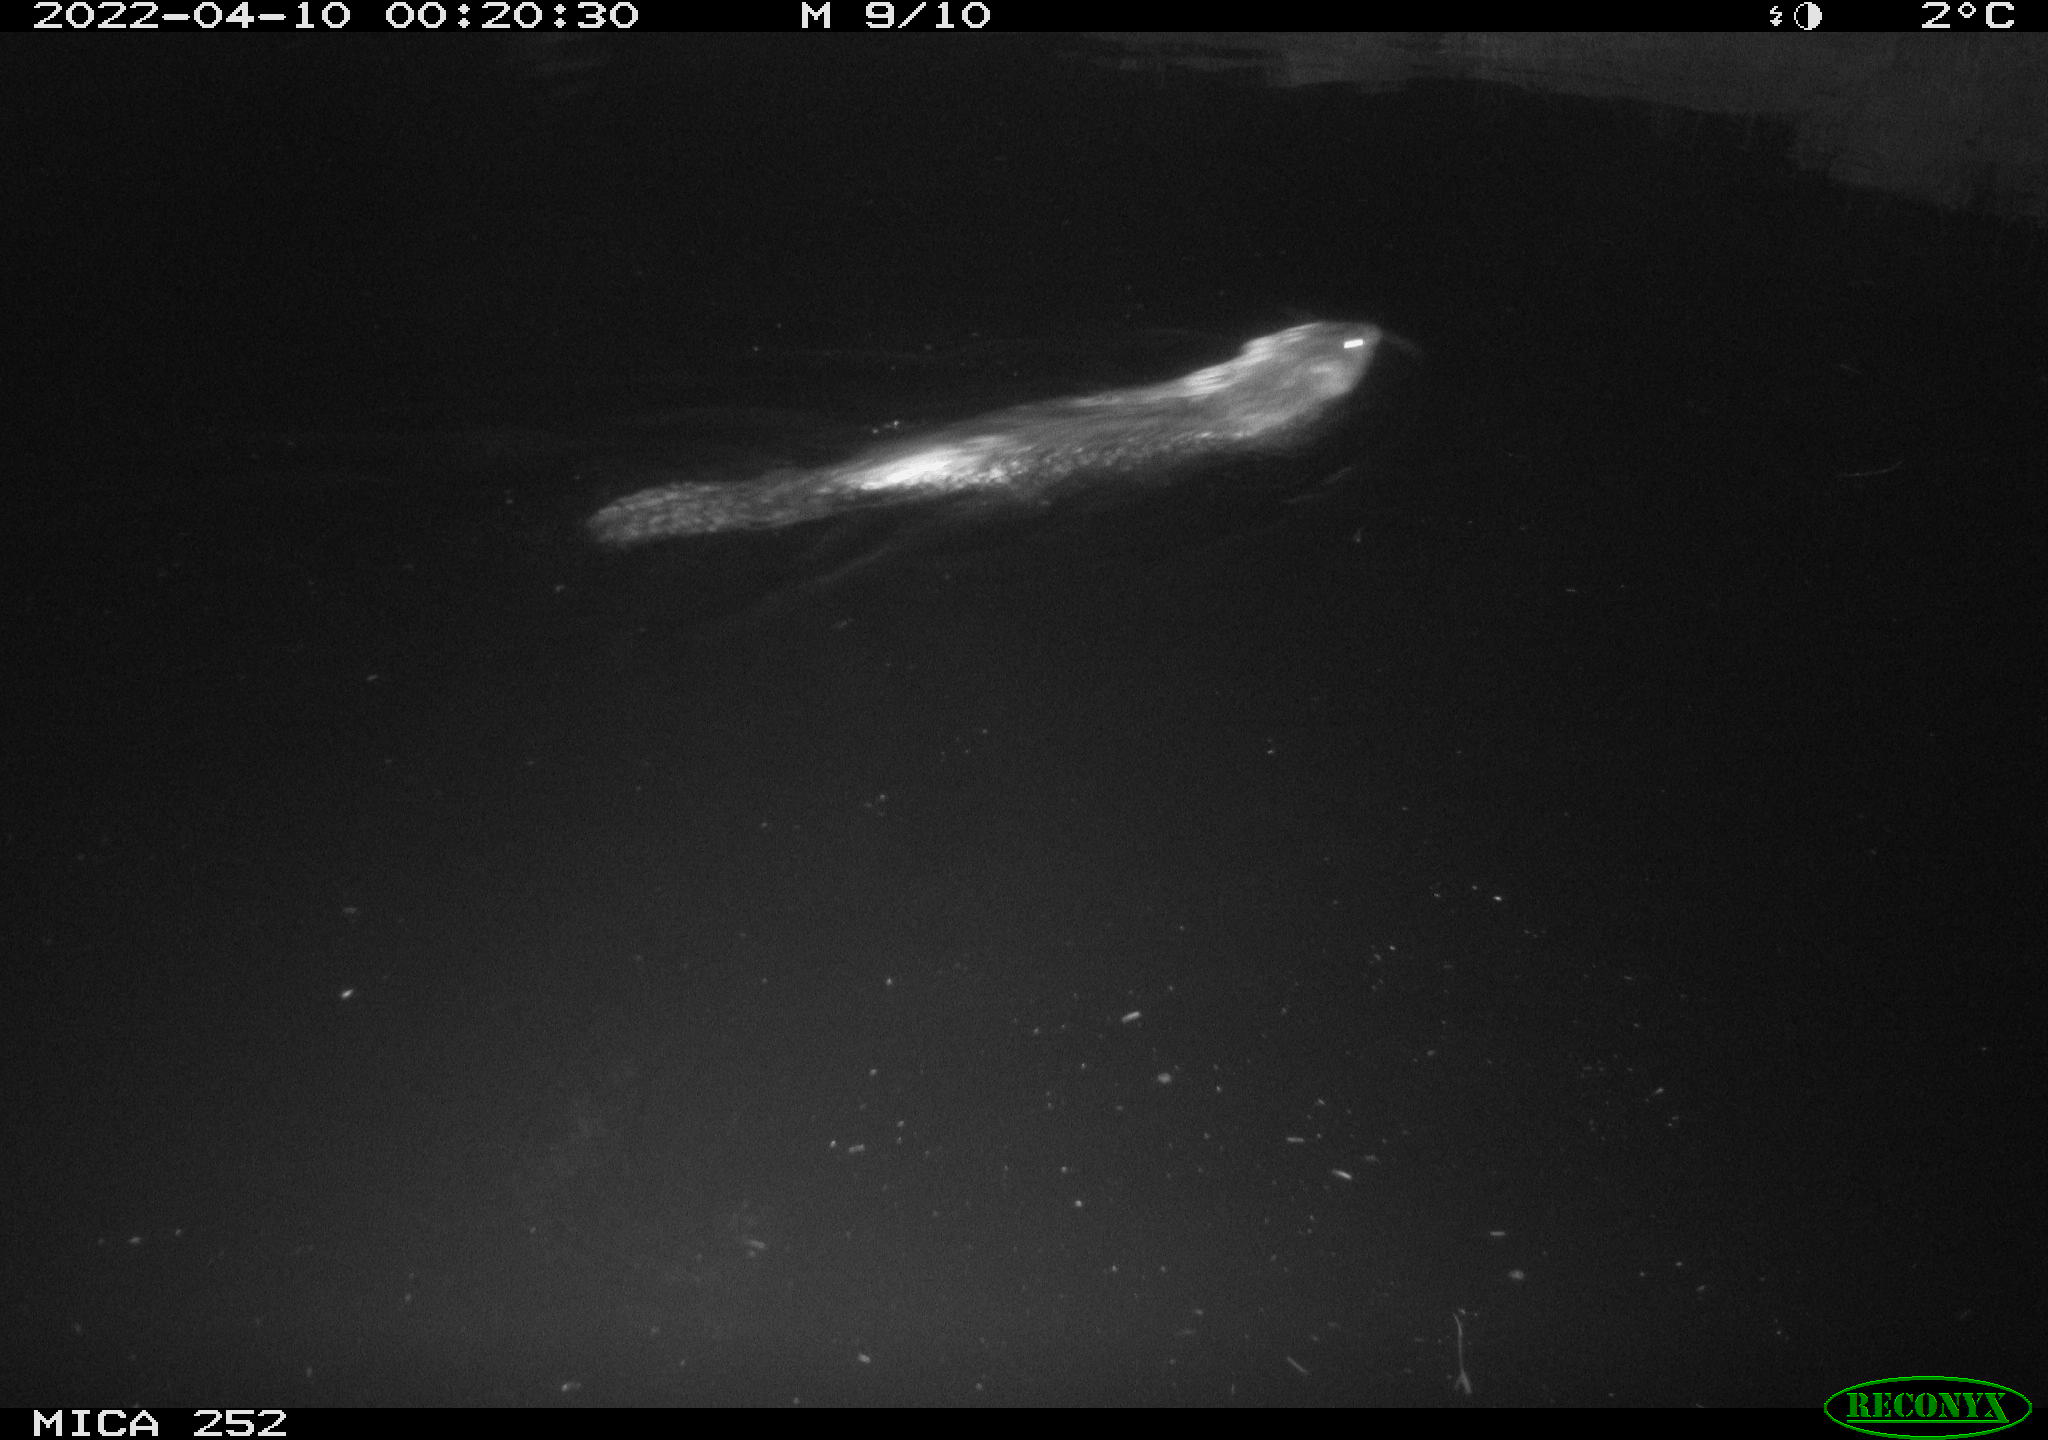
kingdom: Animalia
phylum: Chordata
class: Mammalia
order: Rodentia
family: Castoridae
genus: Castor
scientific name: Castor fiber
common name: Eurasian beaver
